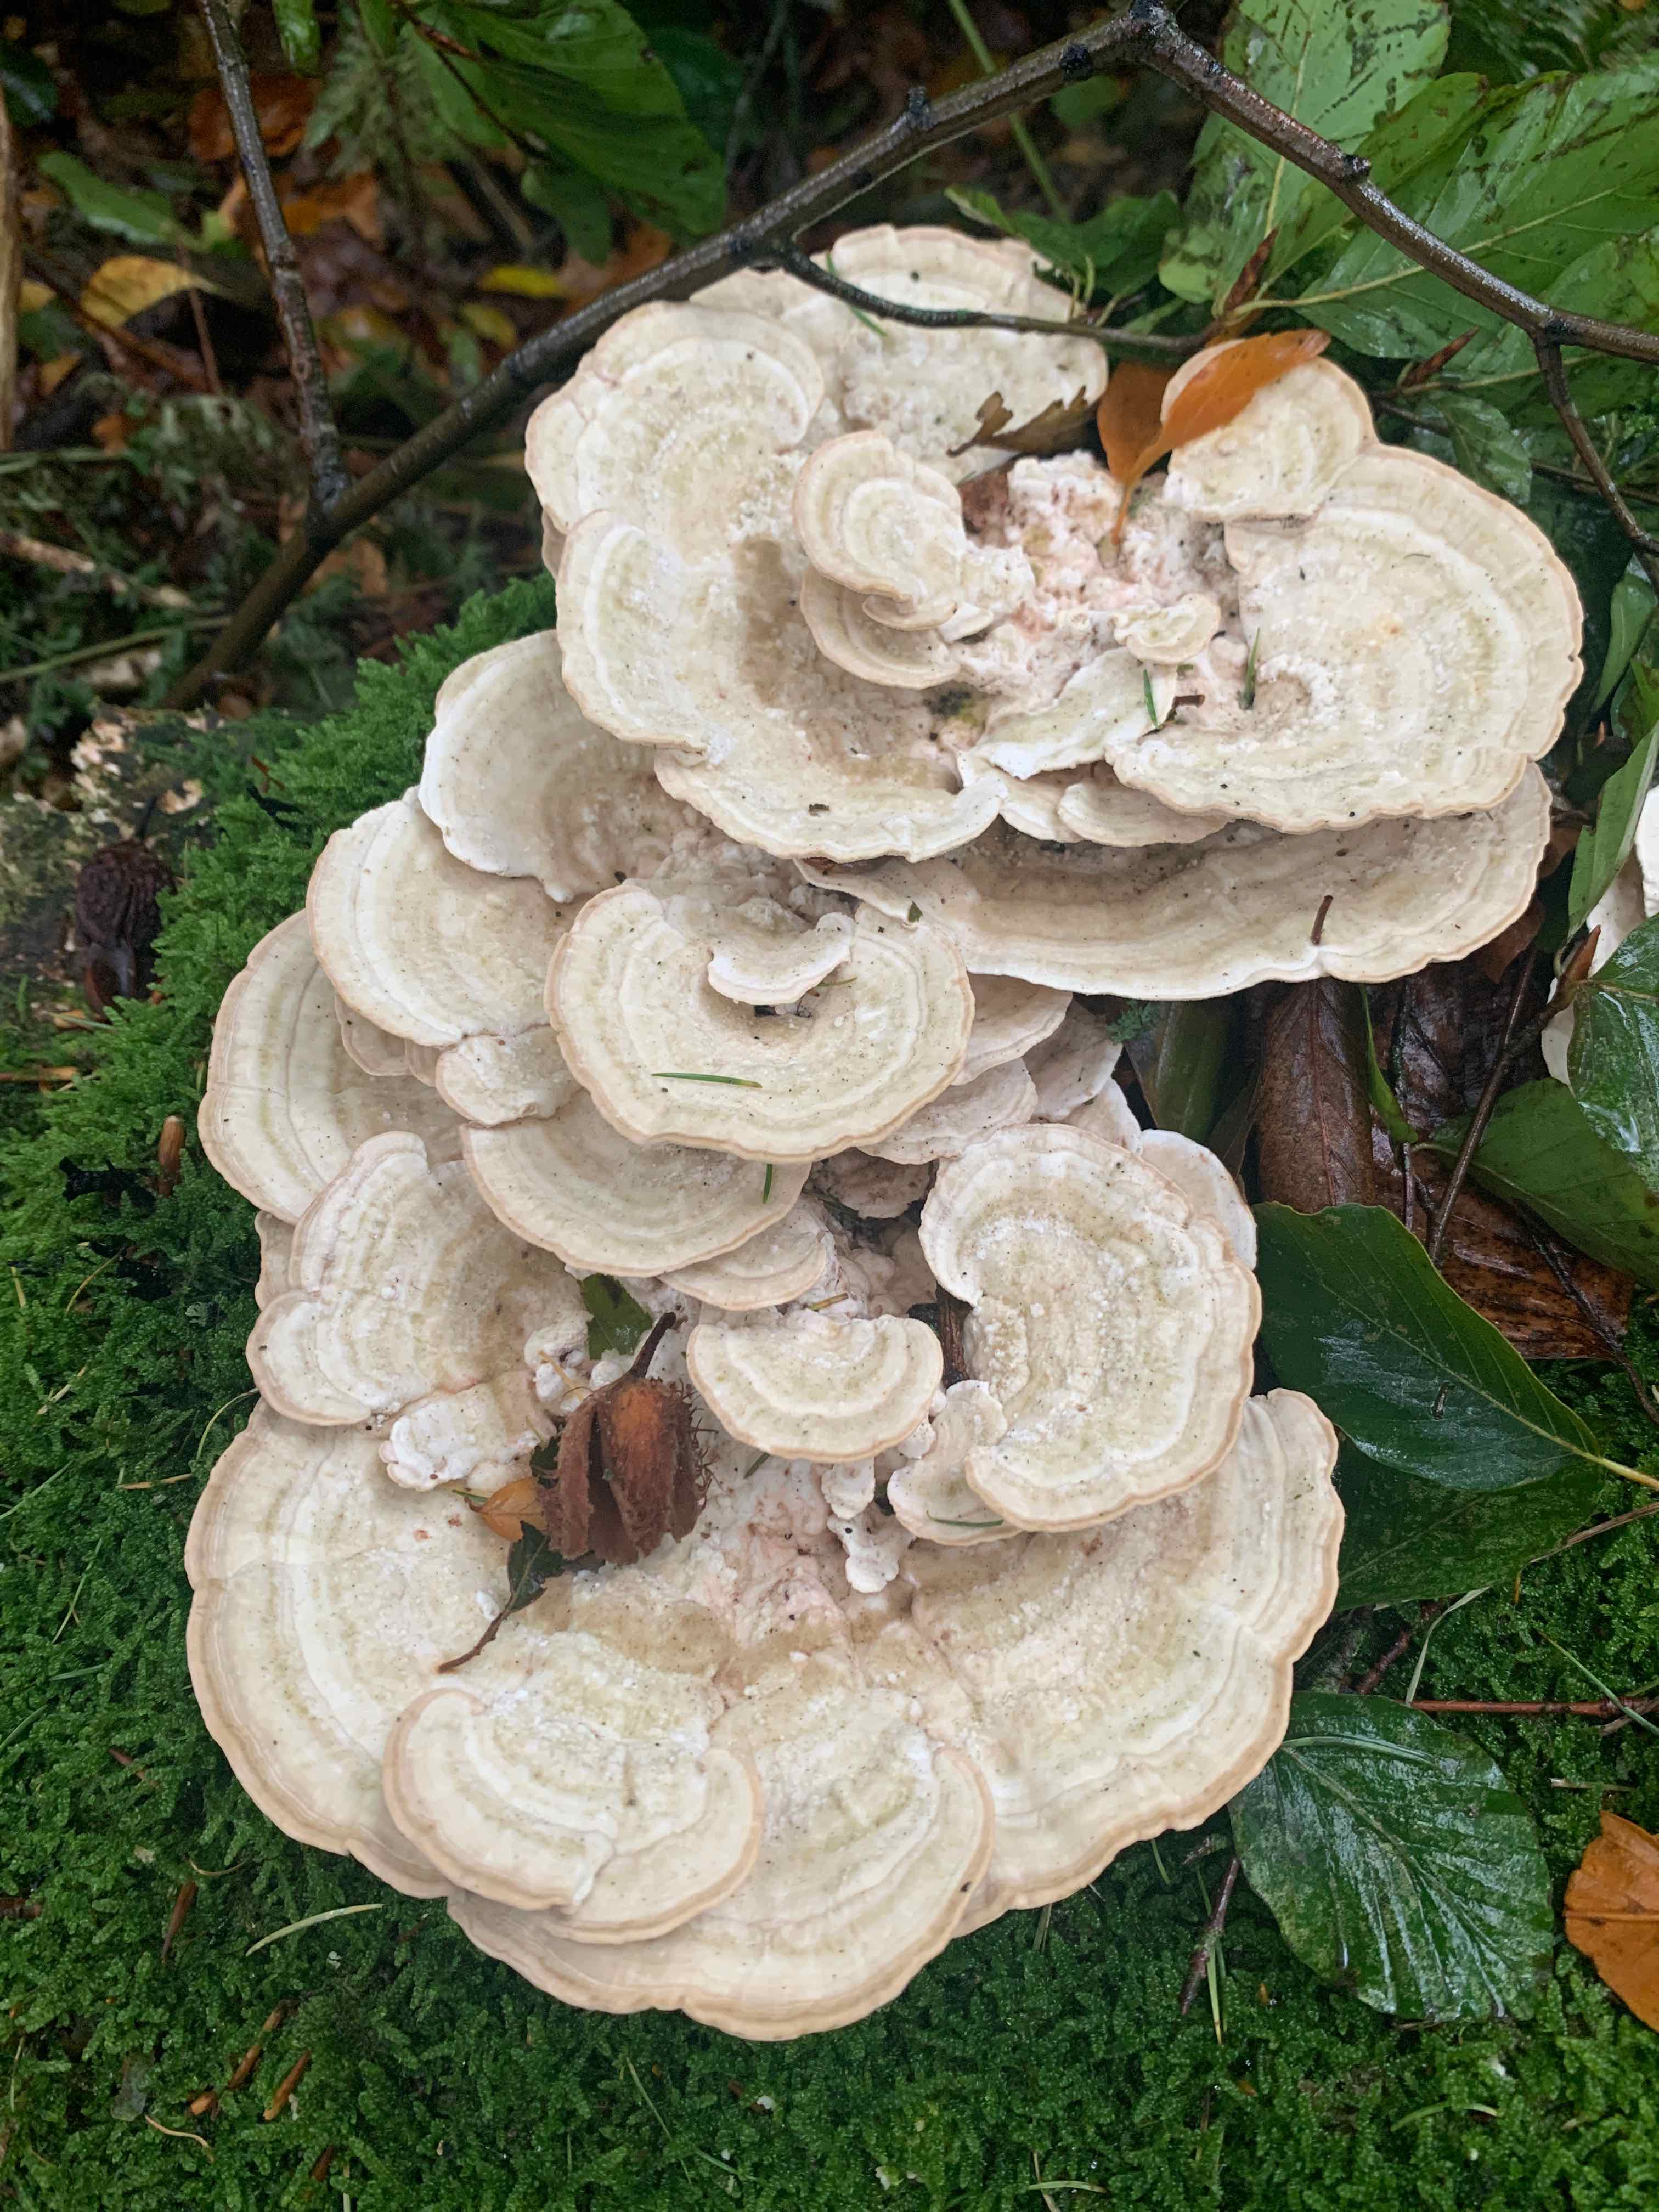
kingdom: Fungi
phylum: Basidiomycota
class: Agaricomycetes
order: Polyporales
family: Polyporaceae
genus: Trametes
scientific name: Trametes gibbosa
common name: puklet læderporesvamp
